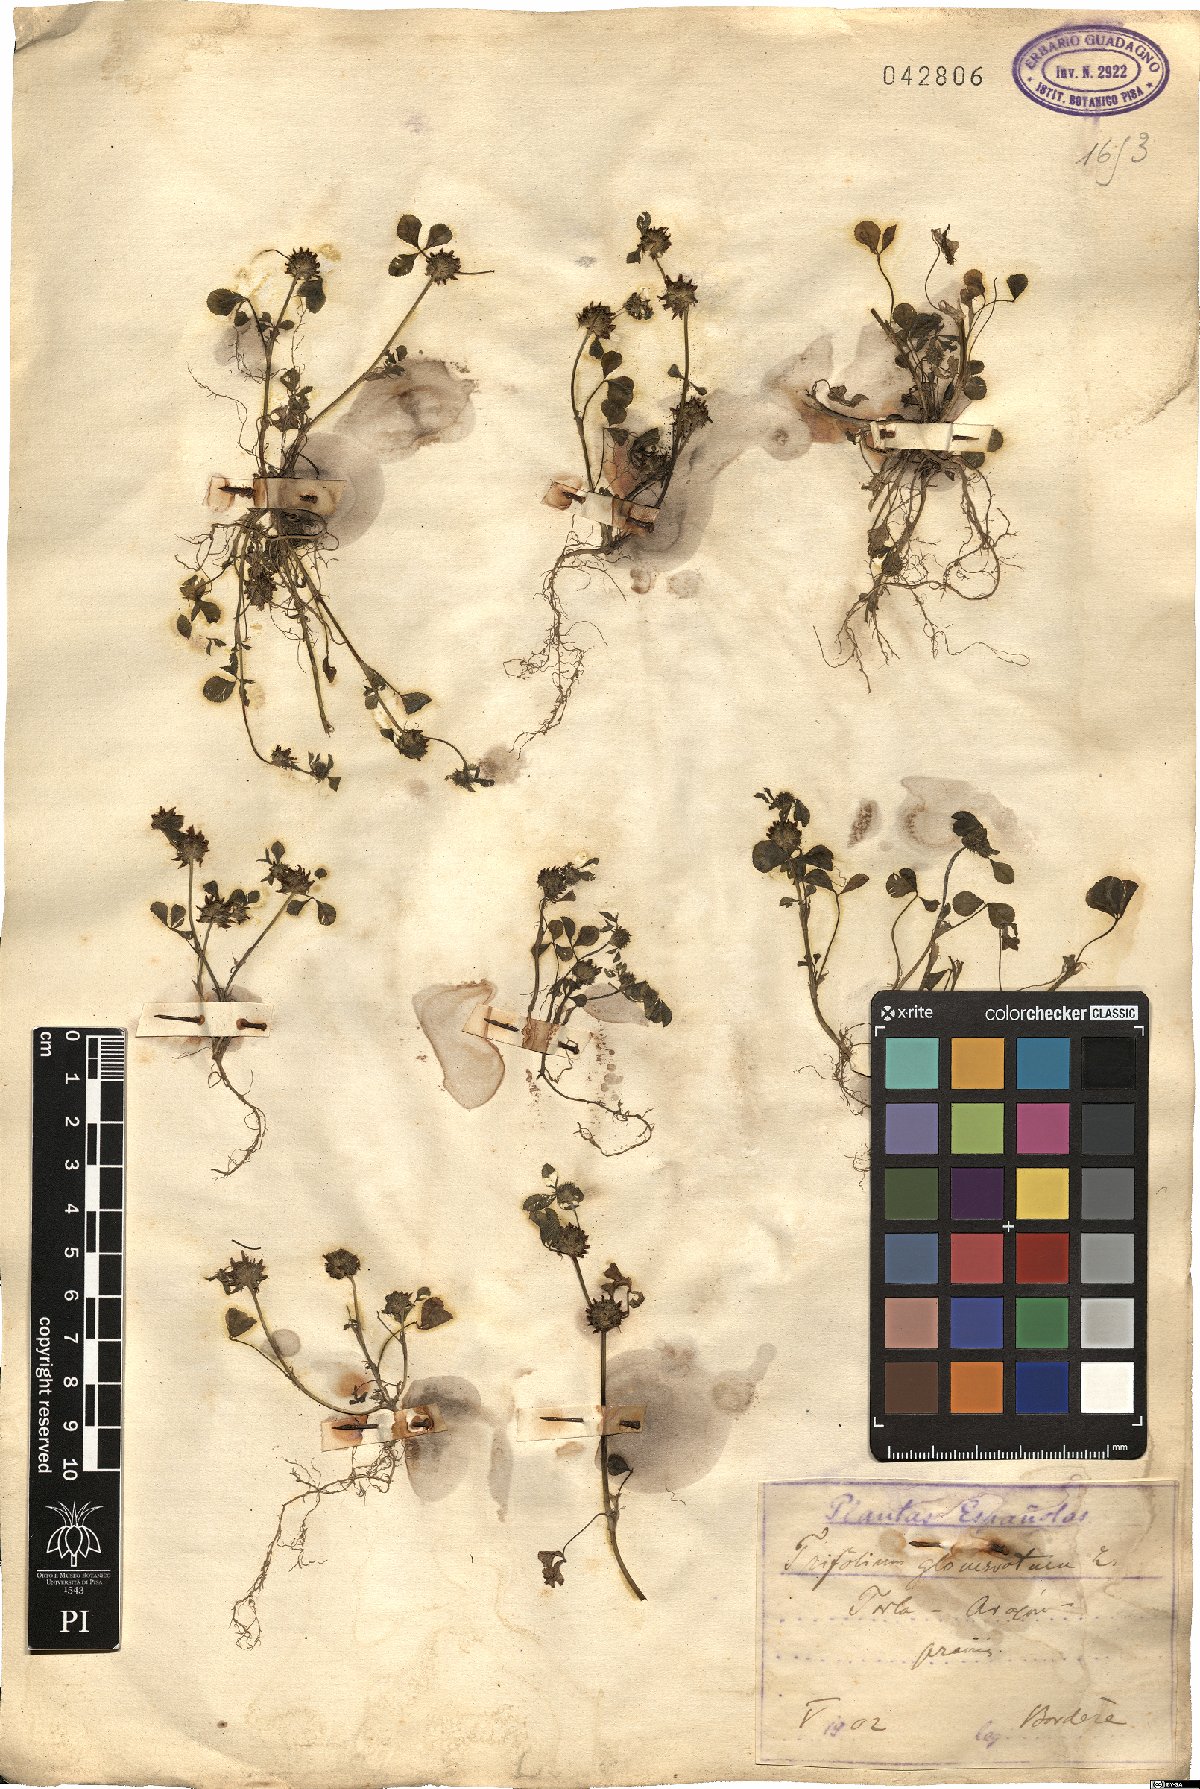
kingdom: Plantae
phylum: Tracheophyta
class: Magnoliopsida
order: Fabales
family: Fabaceae
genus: Trifolium
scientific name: Trifolium glomeratum
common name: Clustered clover
